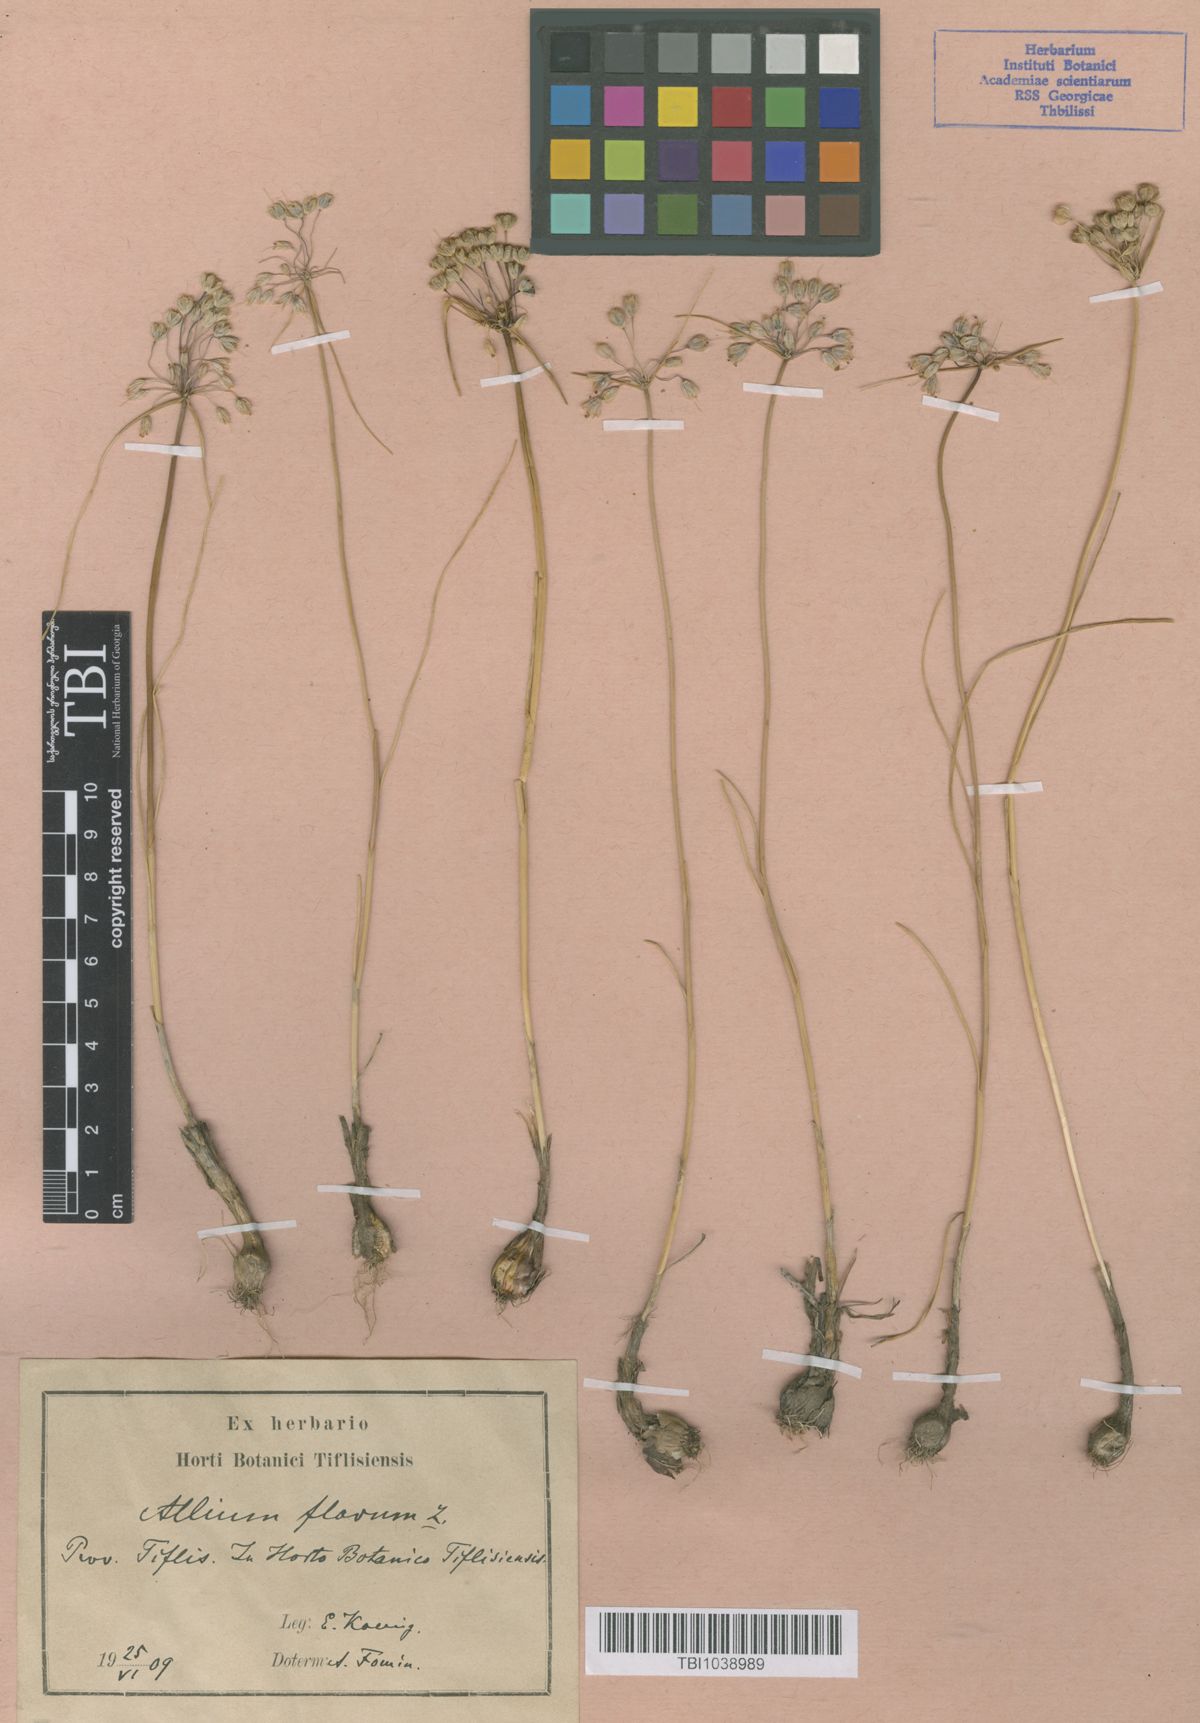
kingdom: Plantae
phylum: Tracheophyta
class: Liliopsida
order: Asparagales
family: Amaryllidaceae
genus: Allium
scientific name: Allium pseudoflavum
